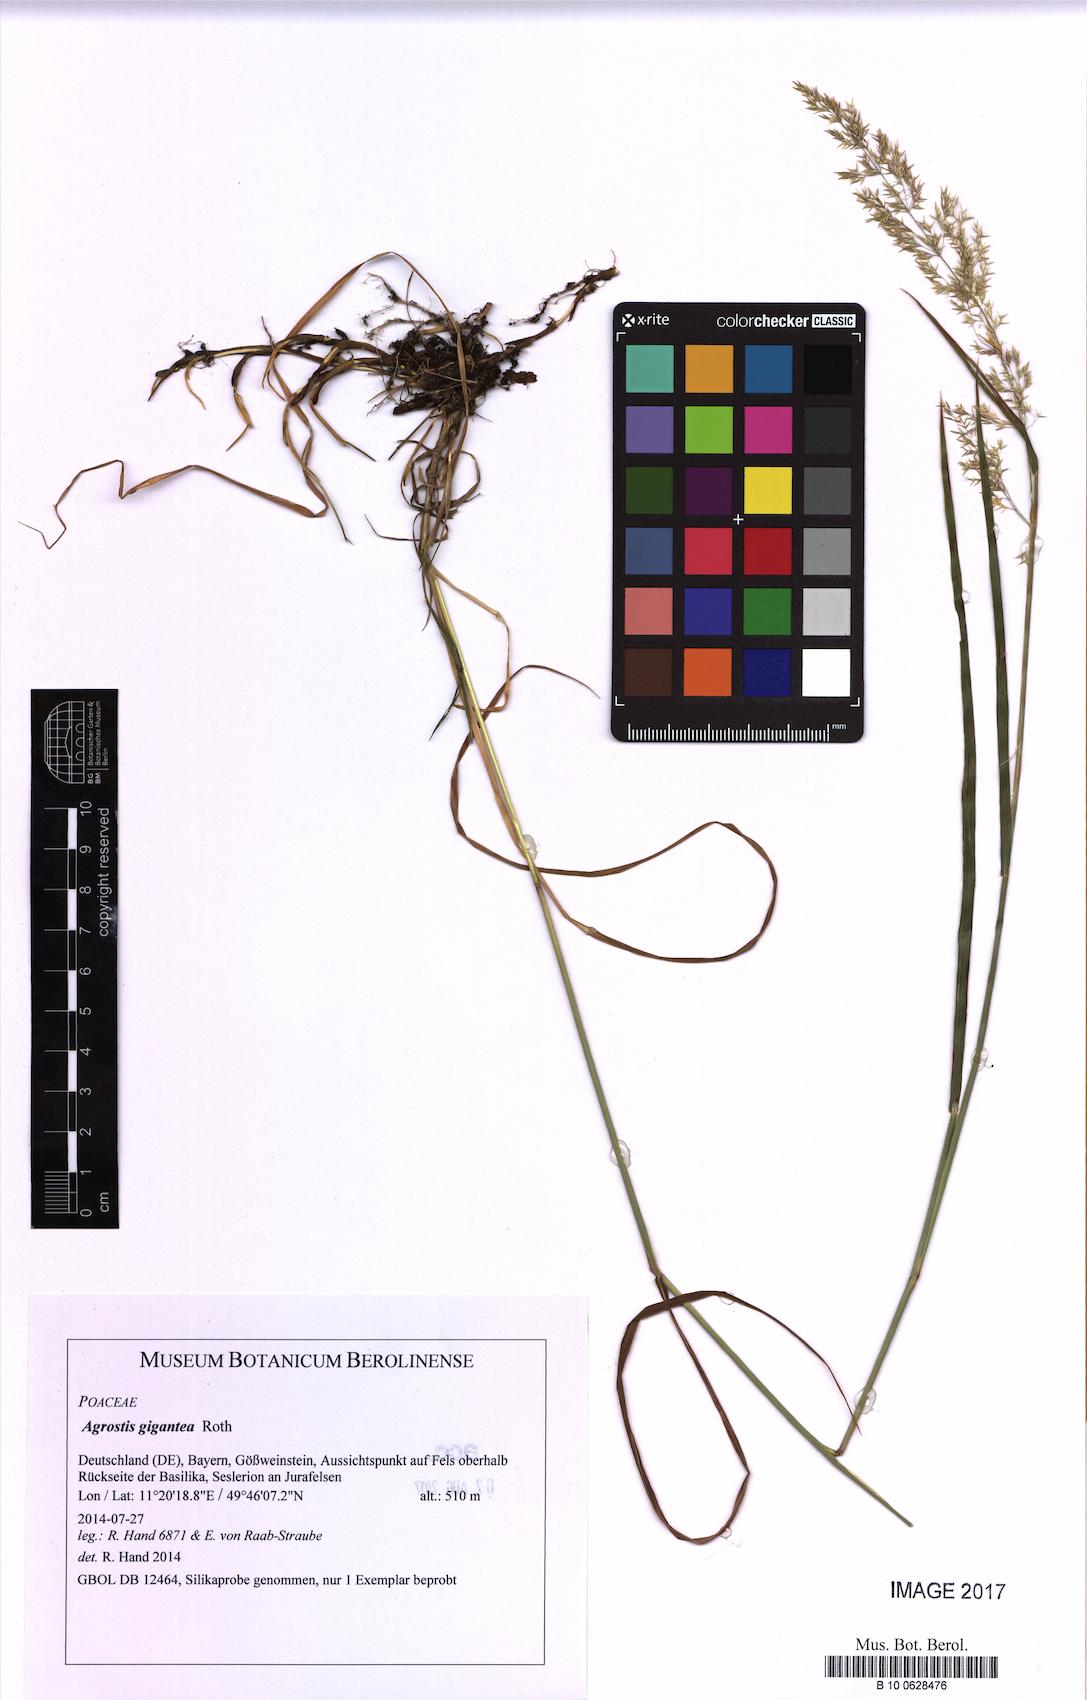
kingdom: Plantae
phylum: Tracheophyta
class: Liliopsida
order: Poales
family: Poaceae
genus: Agrostis
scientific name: Agrostis gigantea
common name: Black bent
